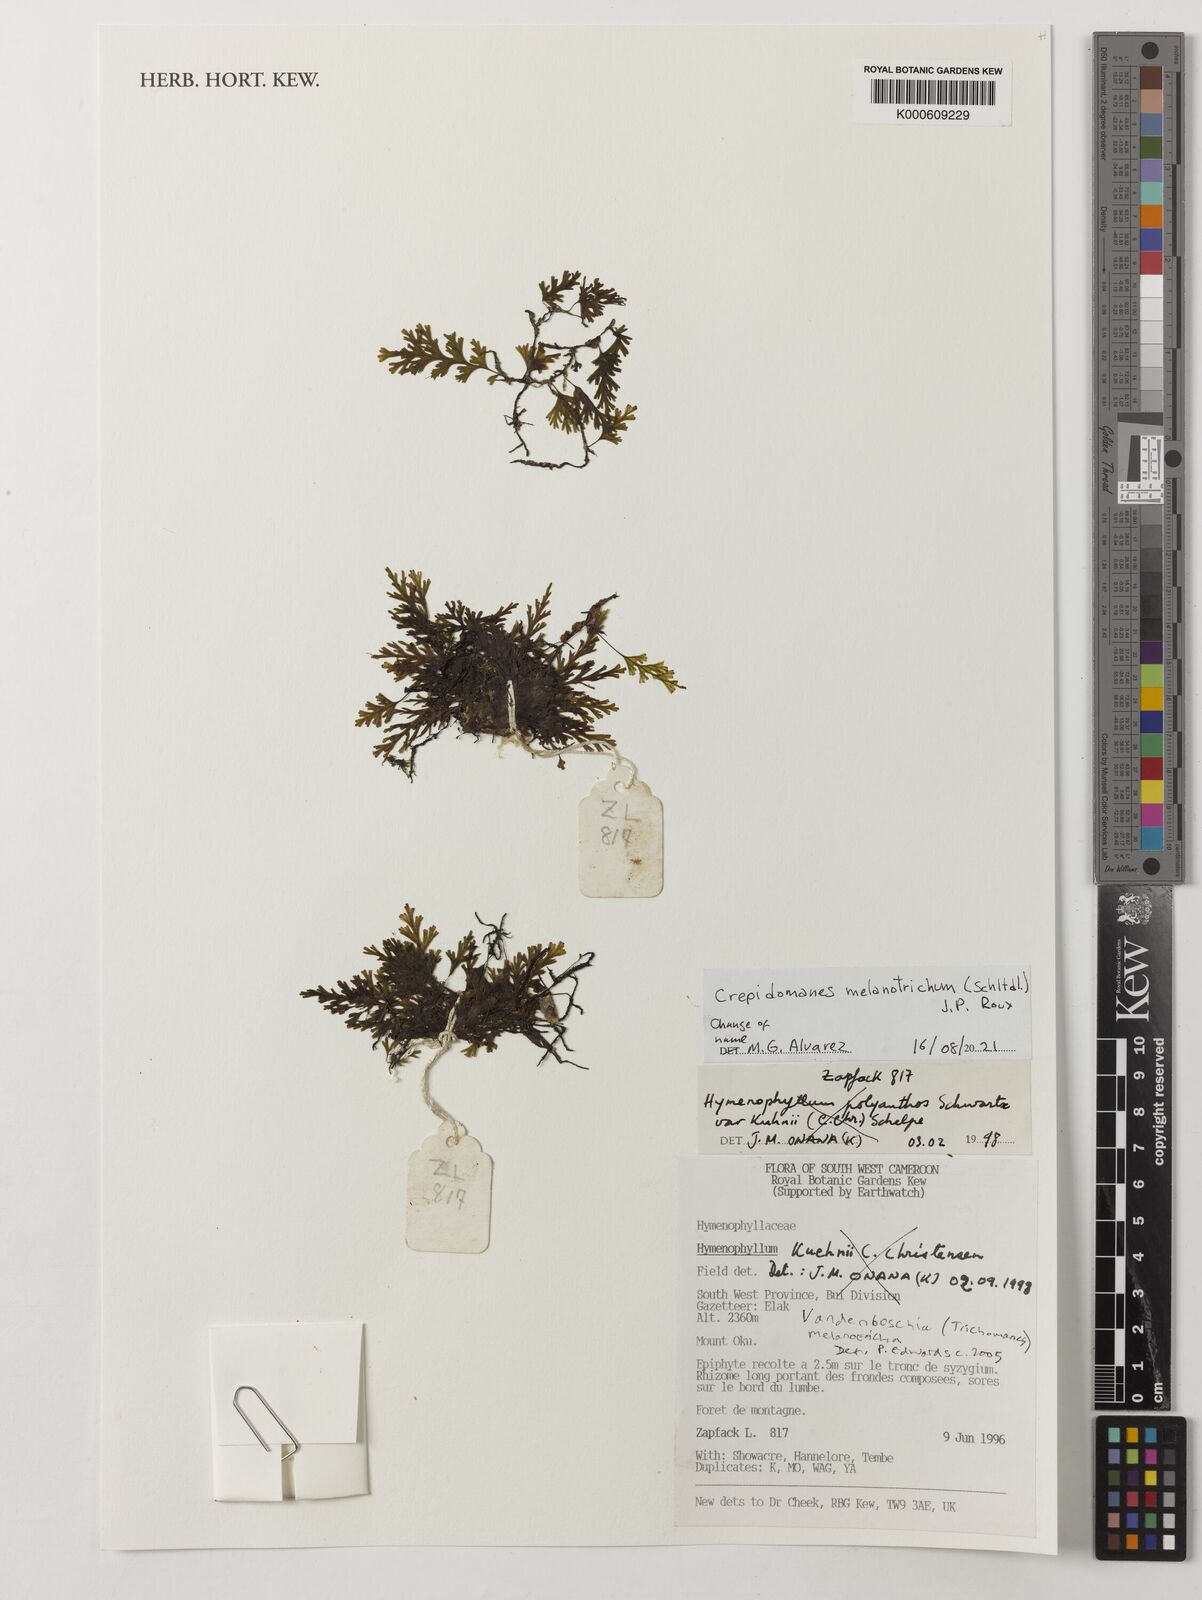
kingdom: Plantae
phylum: Tracheophyta
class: Polypodiopsida
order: Hymenophyllales
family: Hymenophyllaceae
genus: Crepidomanes
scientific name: Crepidomanes melanotrichum
